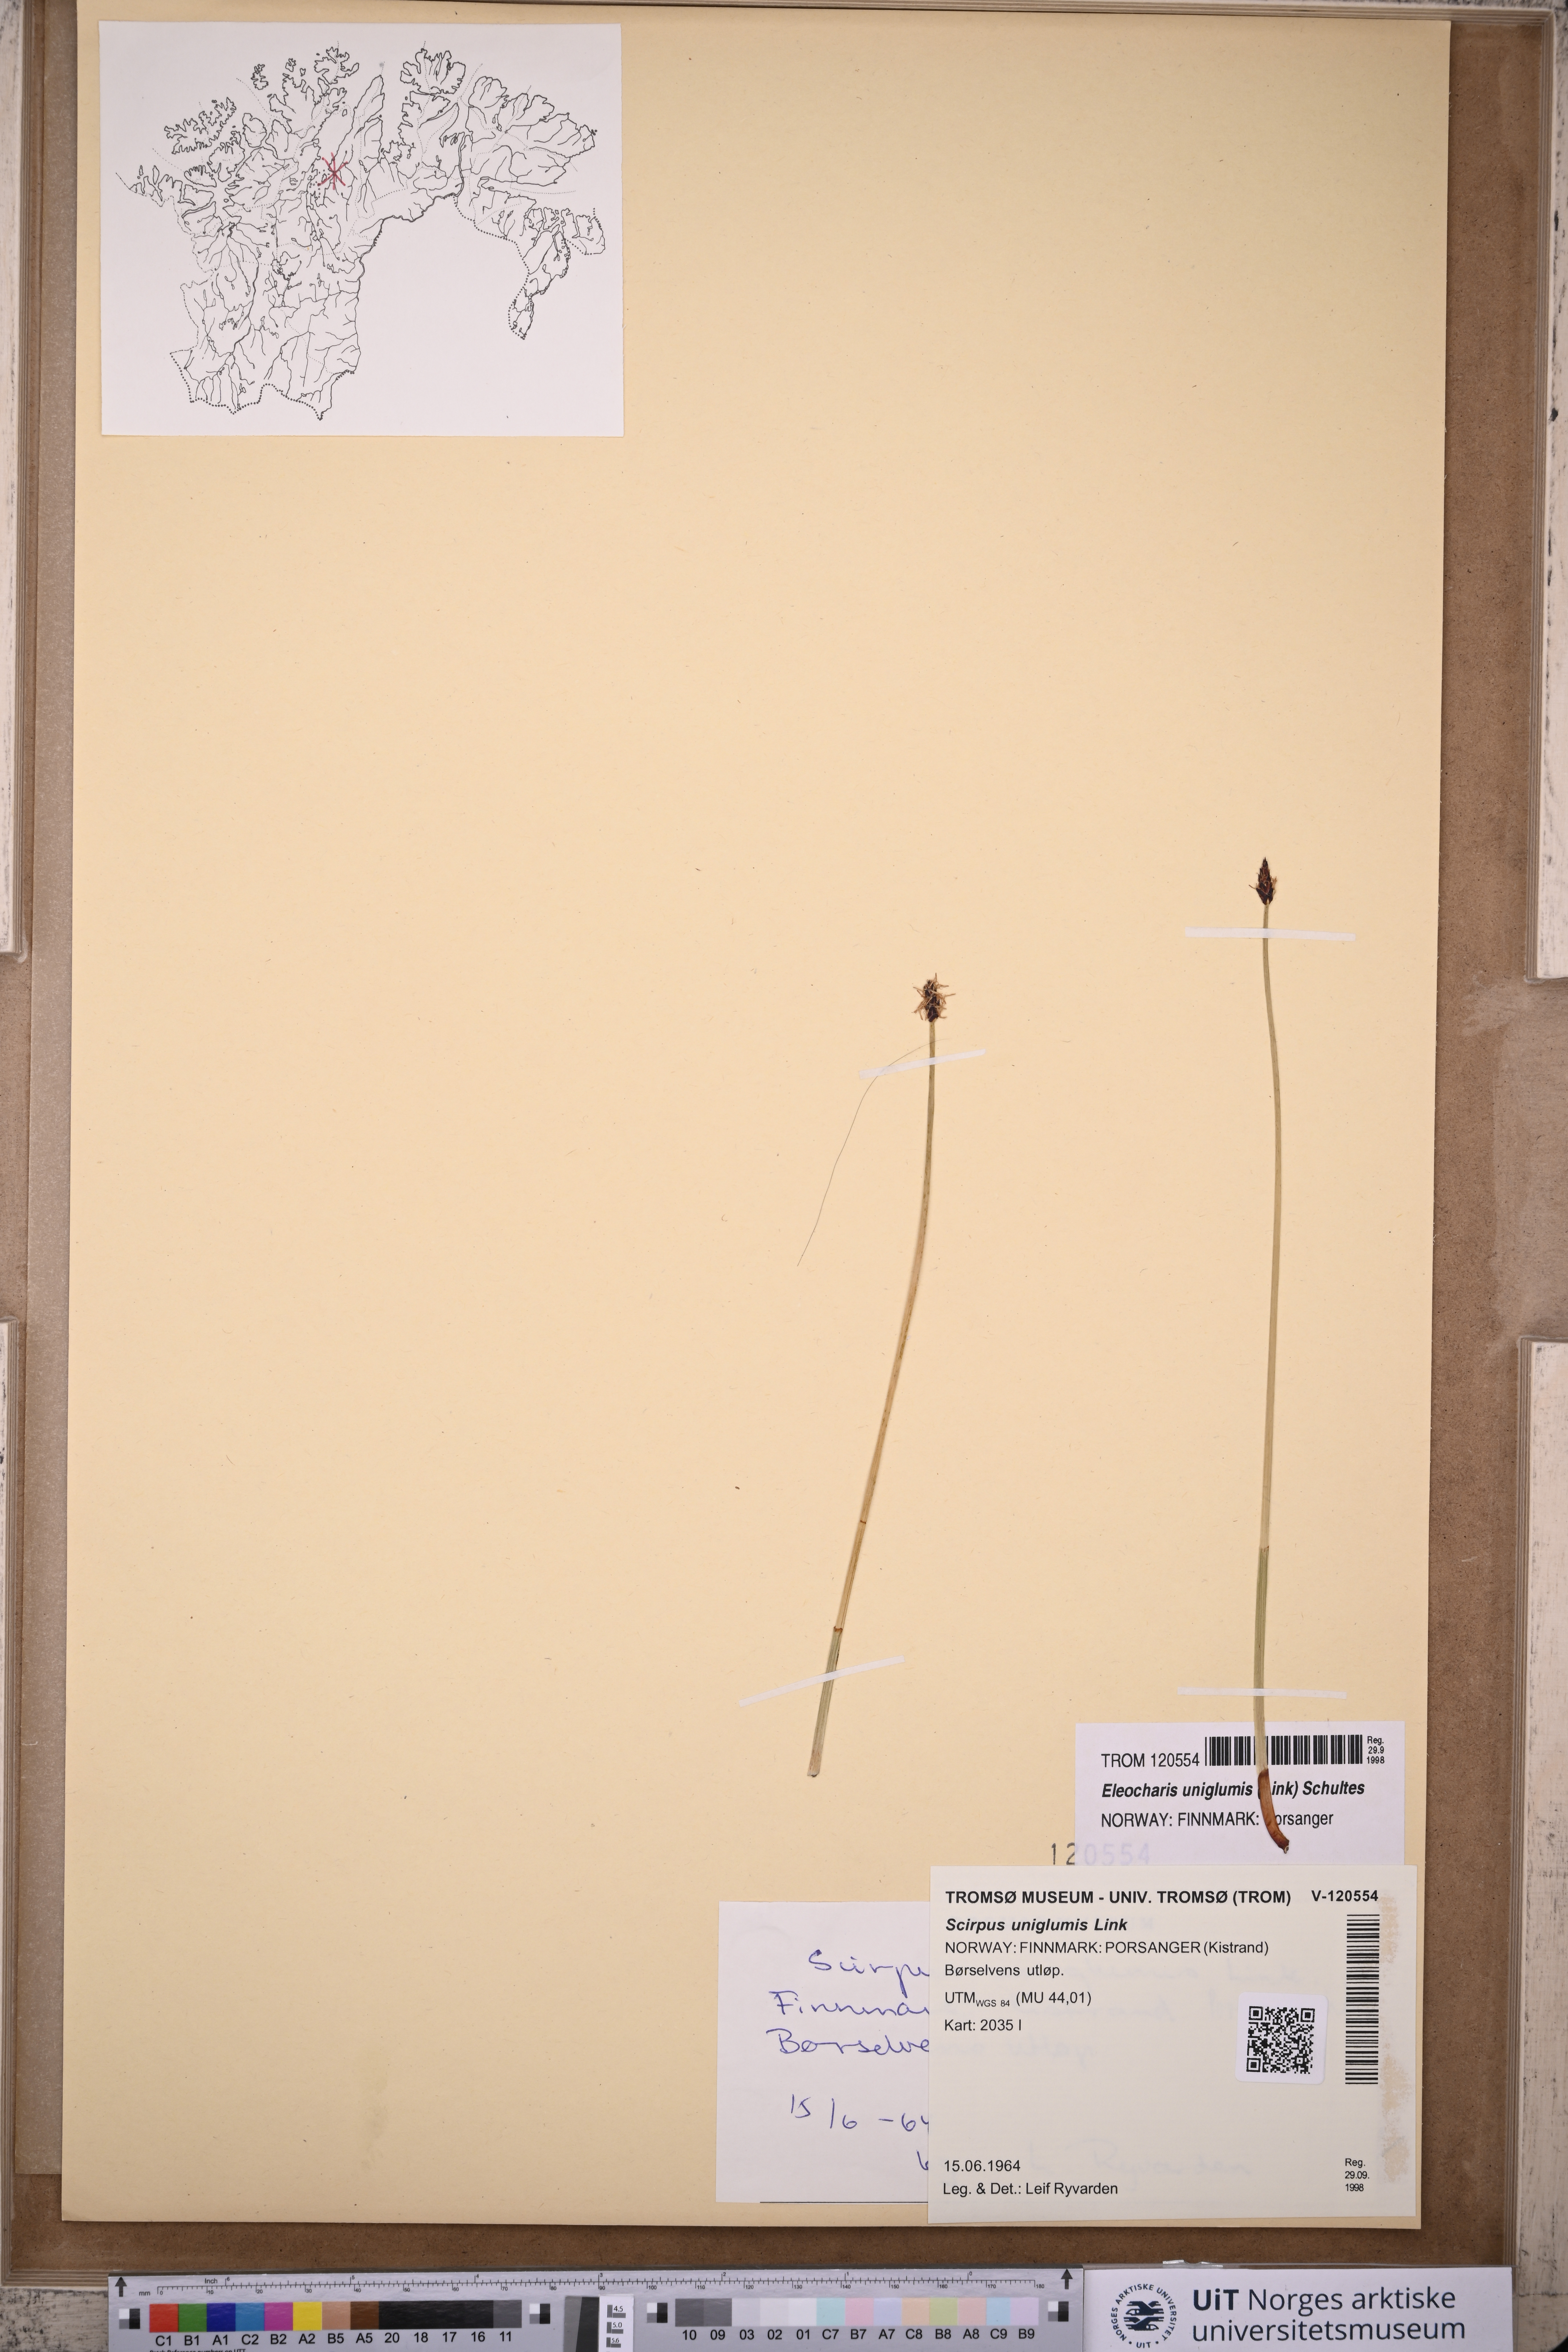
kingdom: Plantae
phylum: Tracheophyta
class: Liliopsida
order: Poales
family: Cyperaceae
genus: Eleocharis
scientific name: Eleocharis uniglumis
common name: Slender spike-rush
